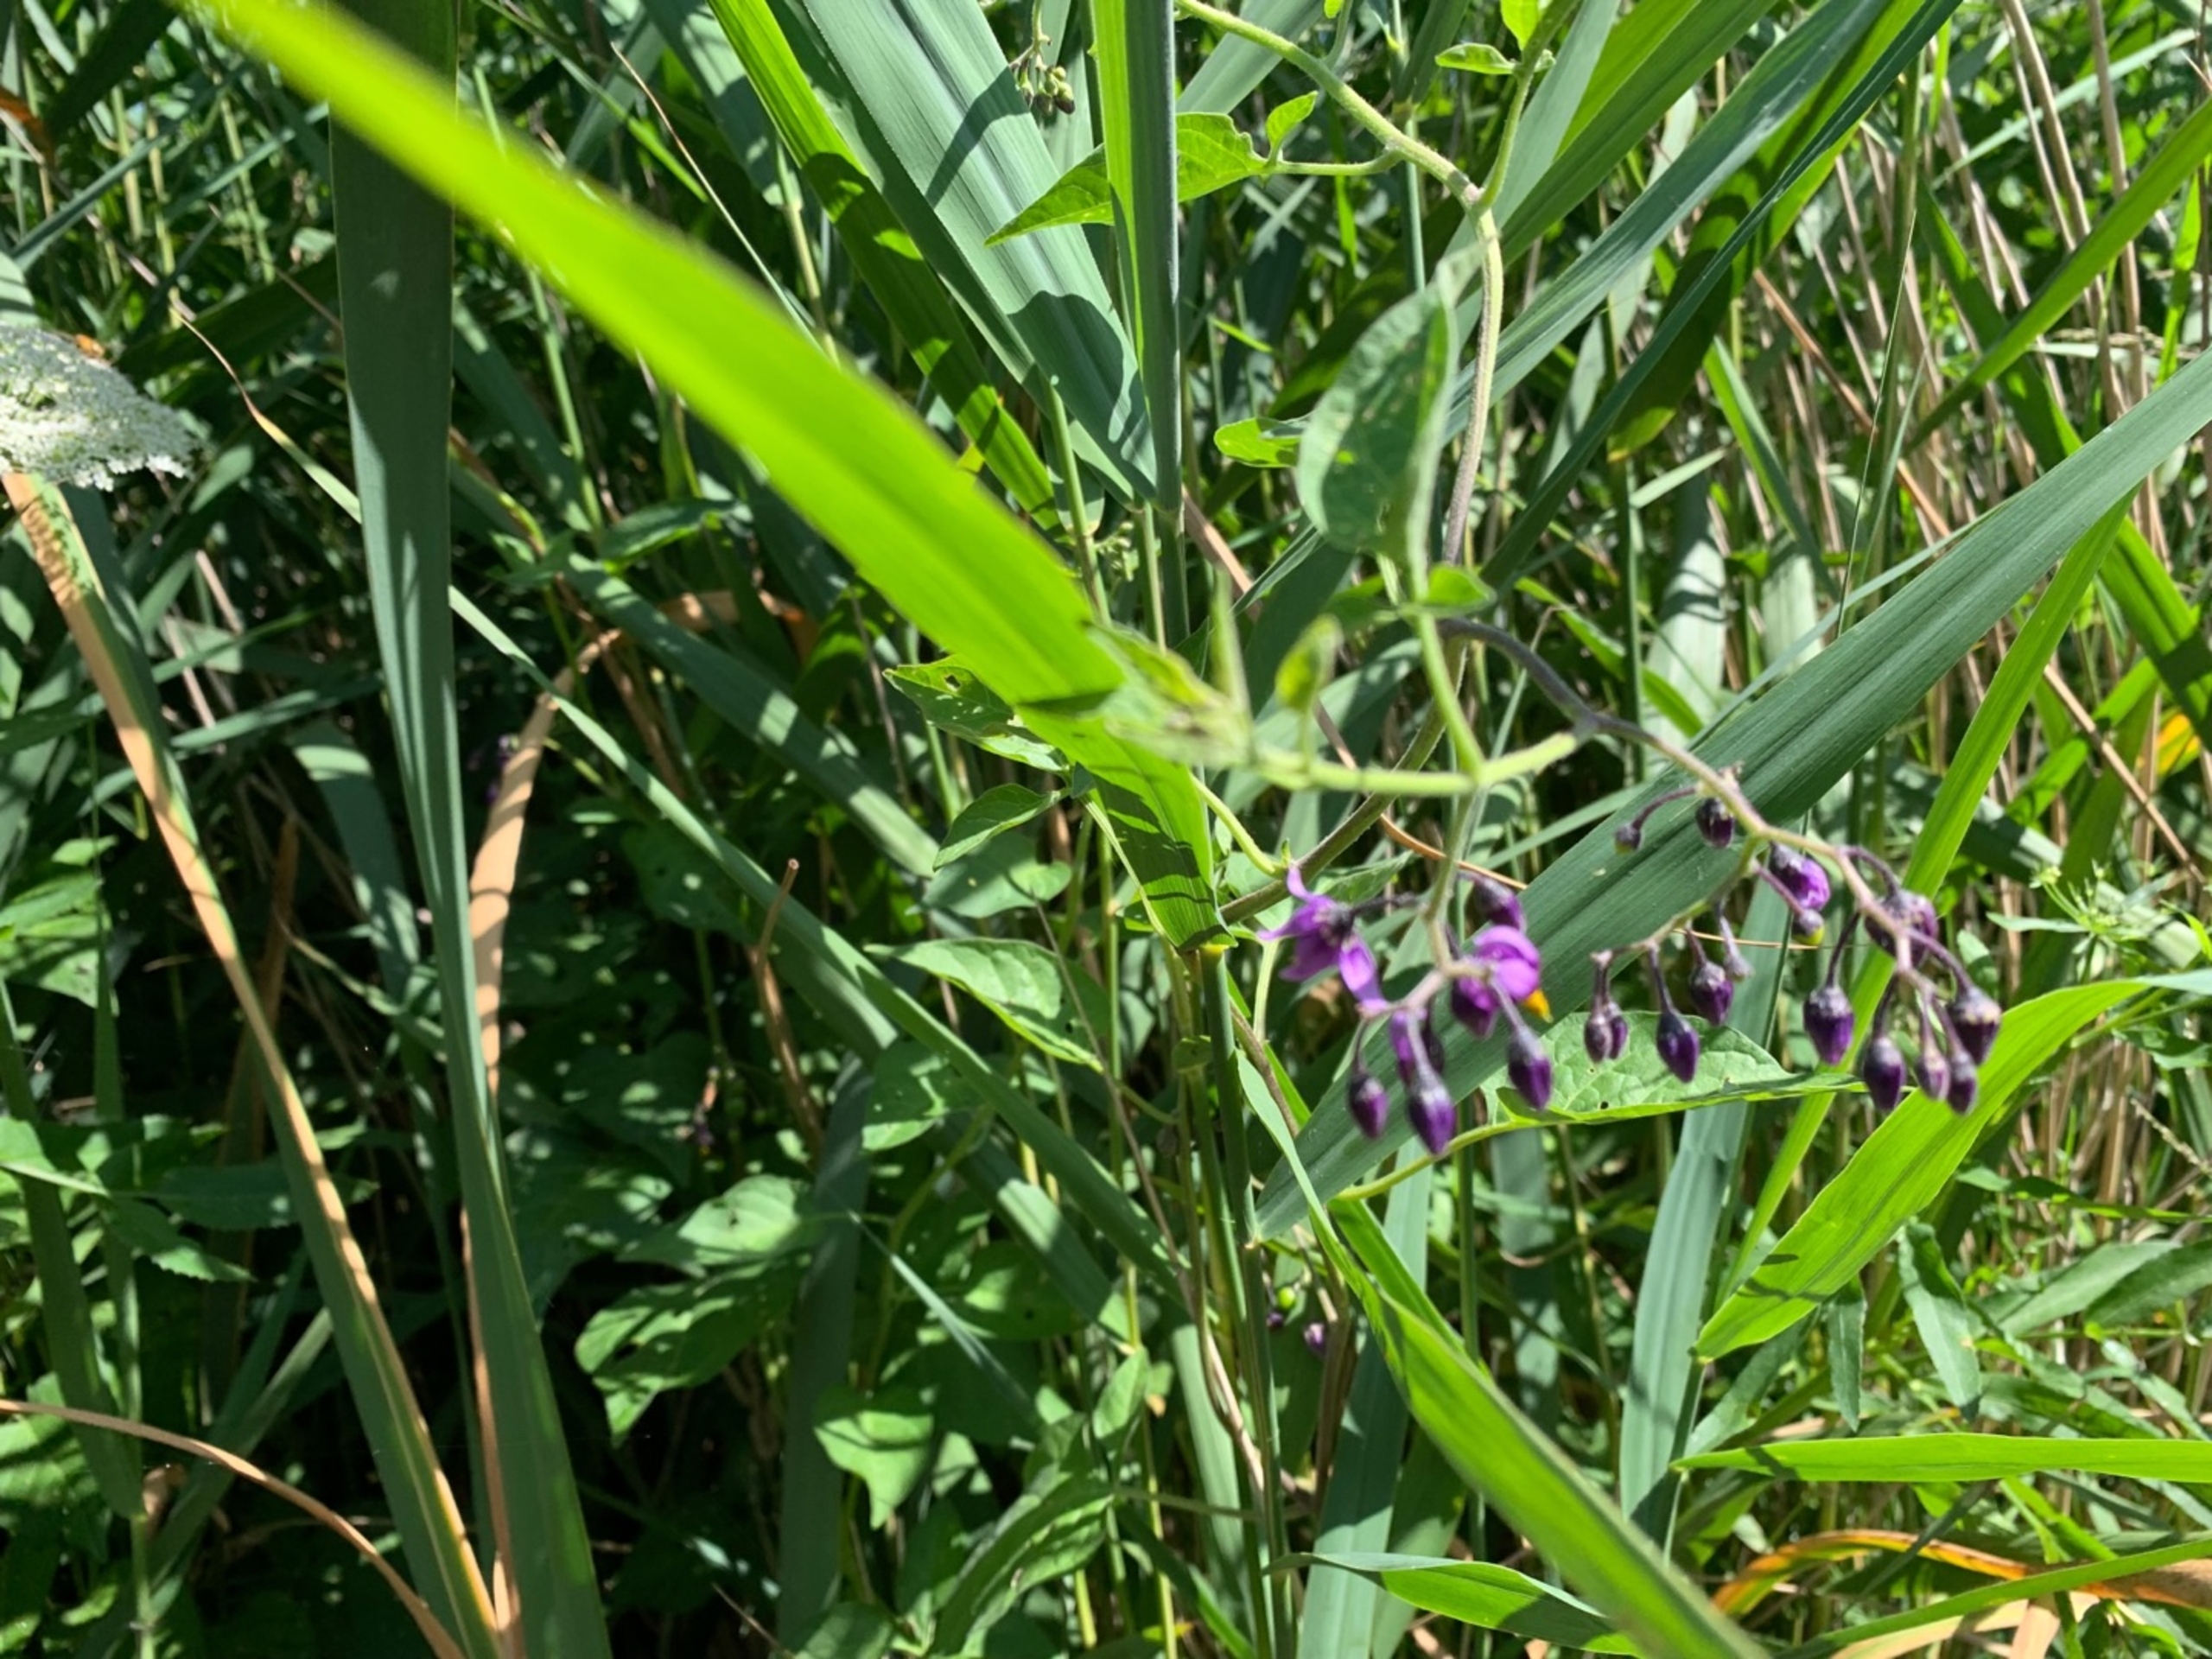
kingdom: Plantae
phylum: Tracheophyta
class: Magnoliopsida
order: Solanales
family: Solanaceae
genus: Solanum
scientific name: Solanum dulcamara
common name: Bittersød natskygge
